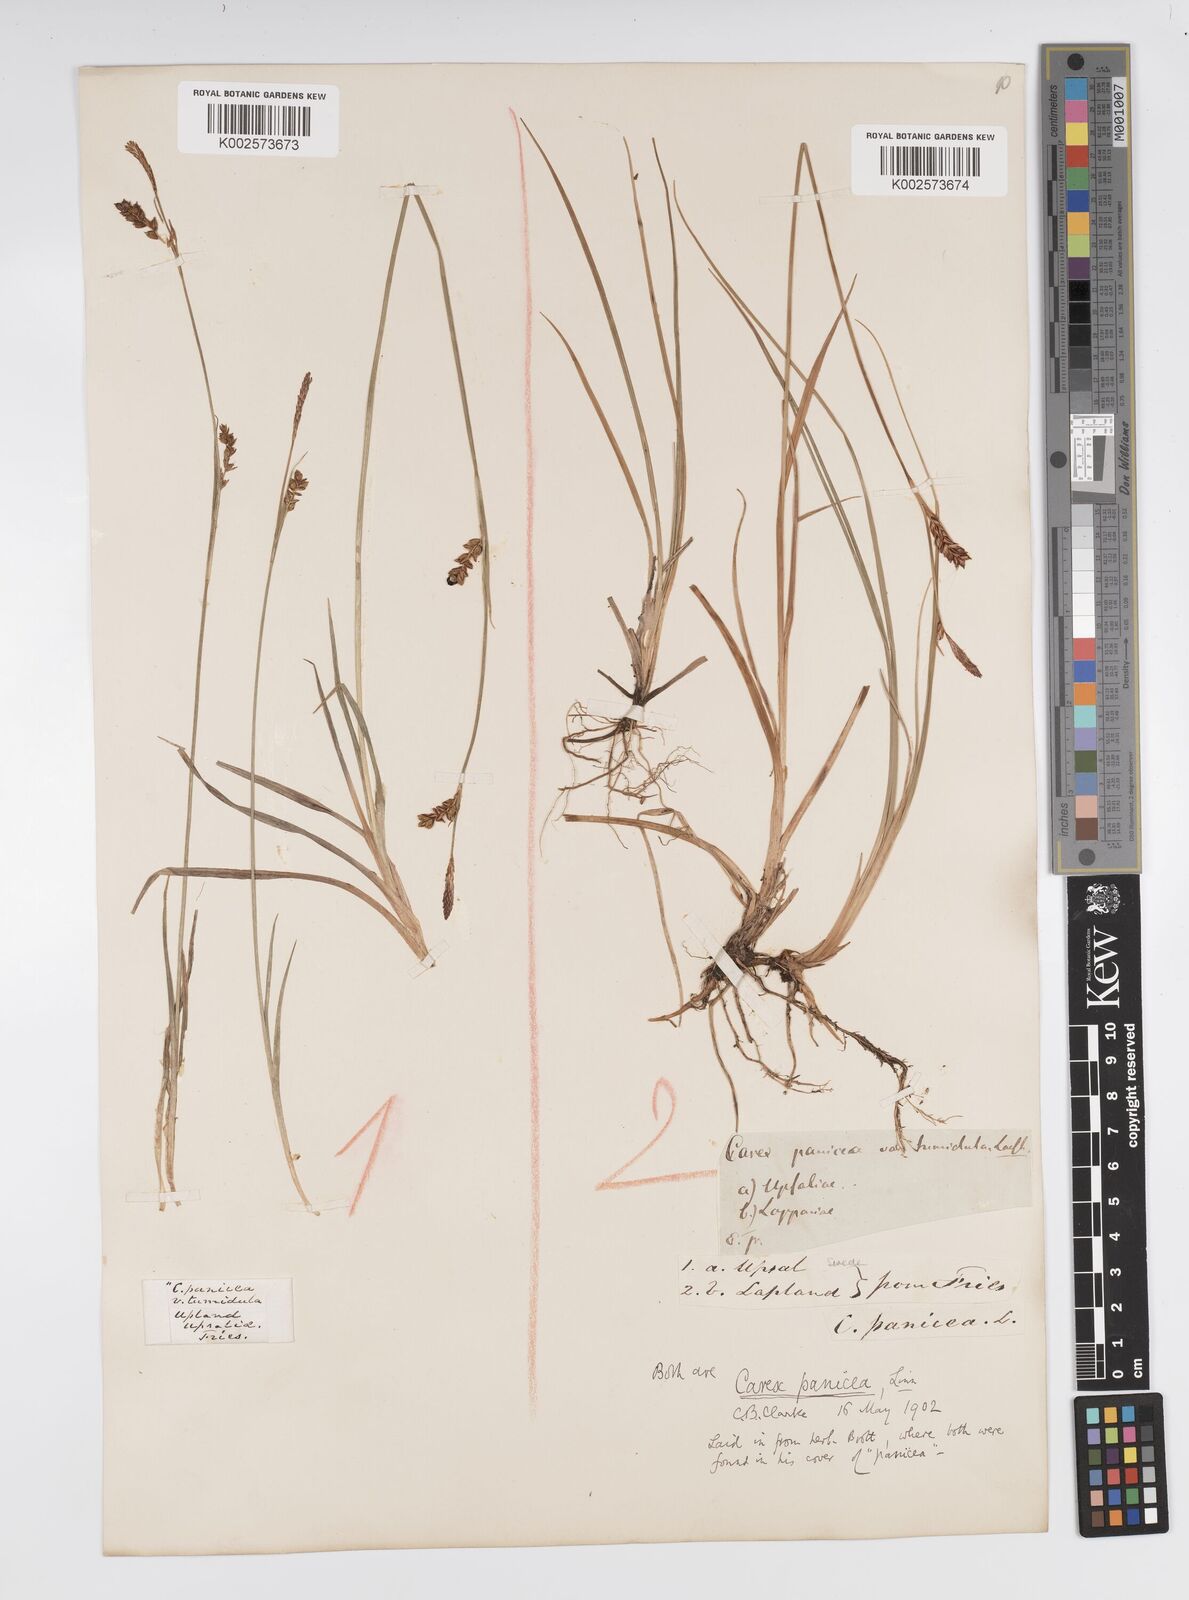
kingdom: Plantae
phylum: Tracheophyta
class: Liliopsida
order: Poales
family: Cyperaceae
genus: Carex
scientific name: Carex panicea
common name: Carnation sedge
